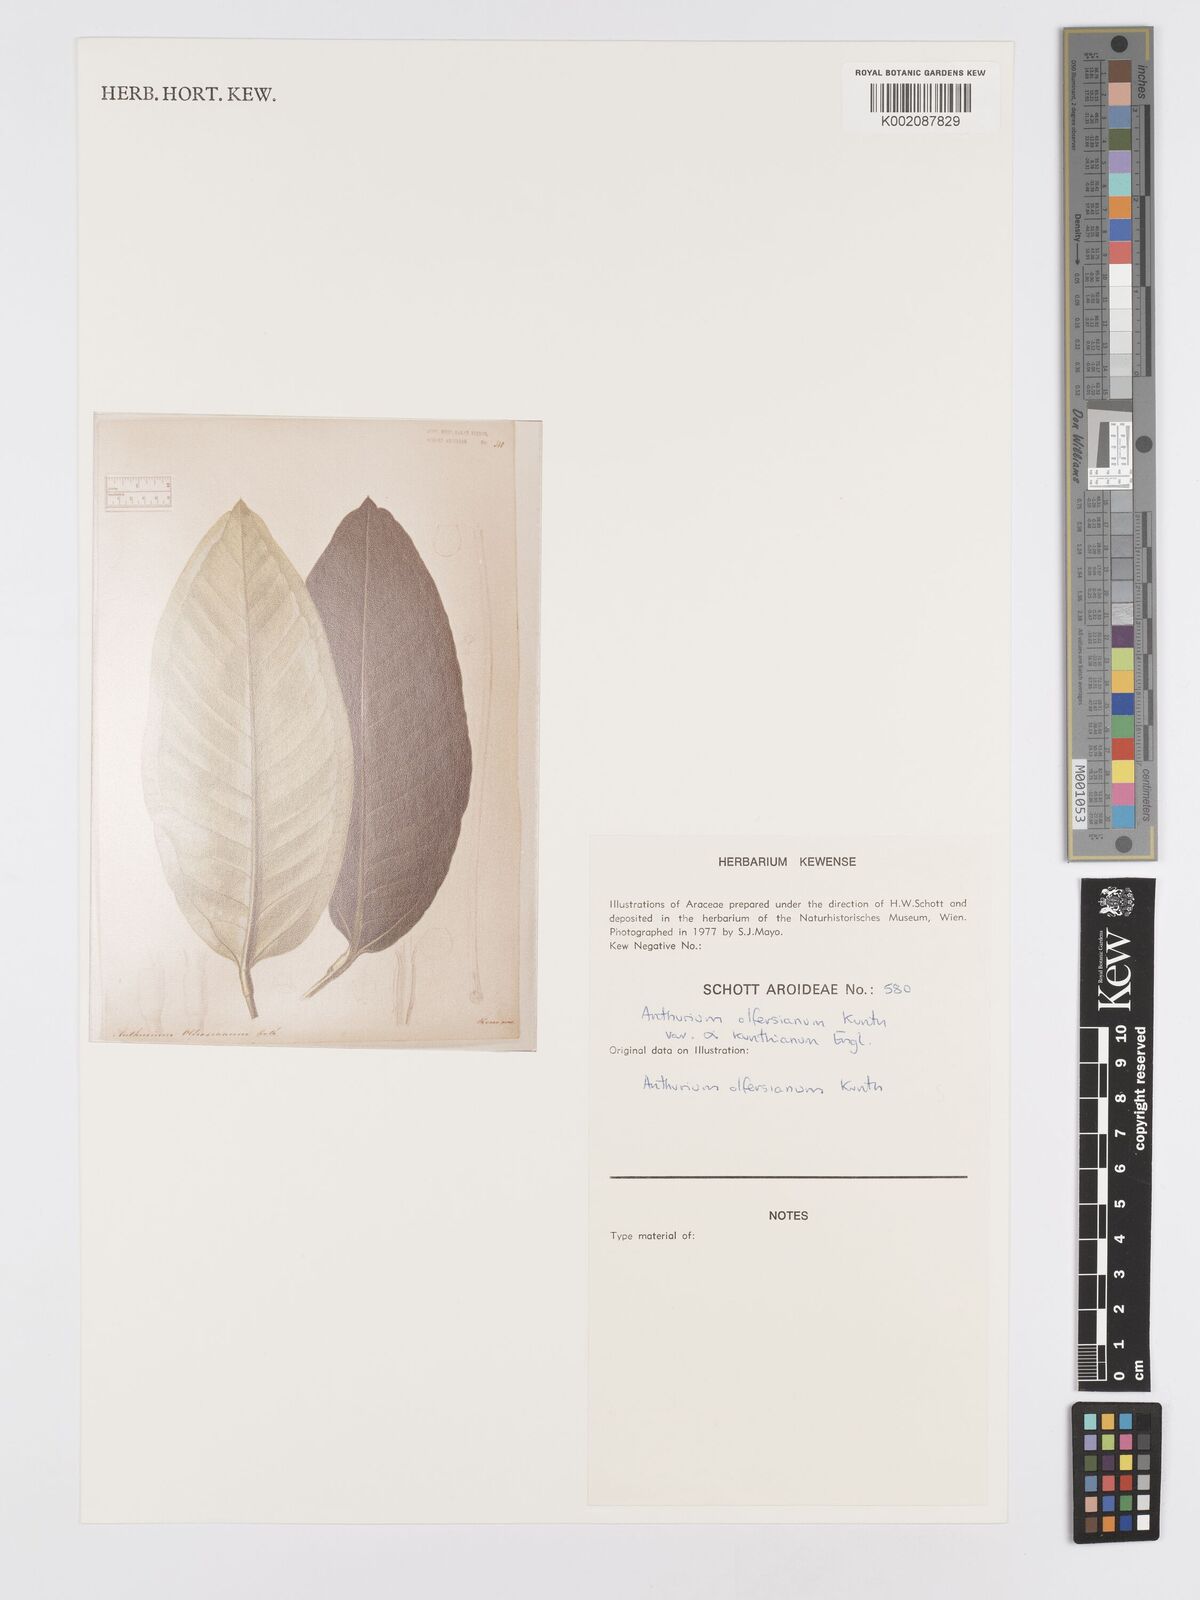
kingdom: Plantae
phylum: Tracheophyta
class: Liliopsida
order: Alismatales
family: Araceae
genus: Anthurium
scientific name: Anthurium parasiticum
